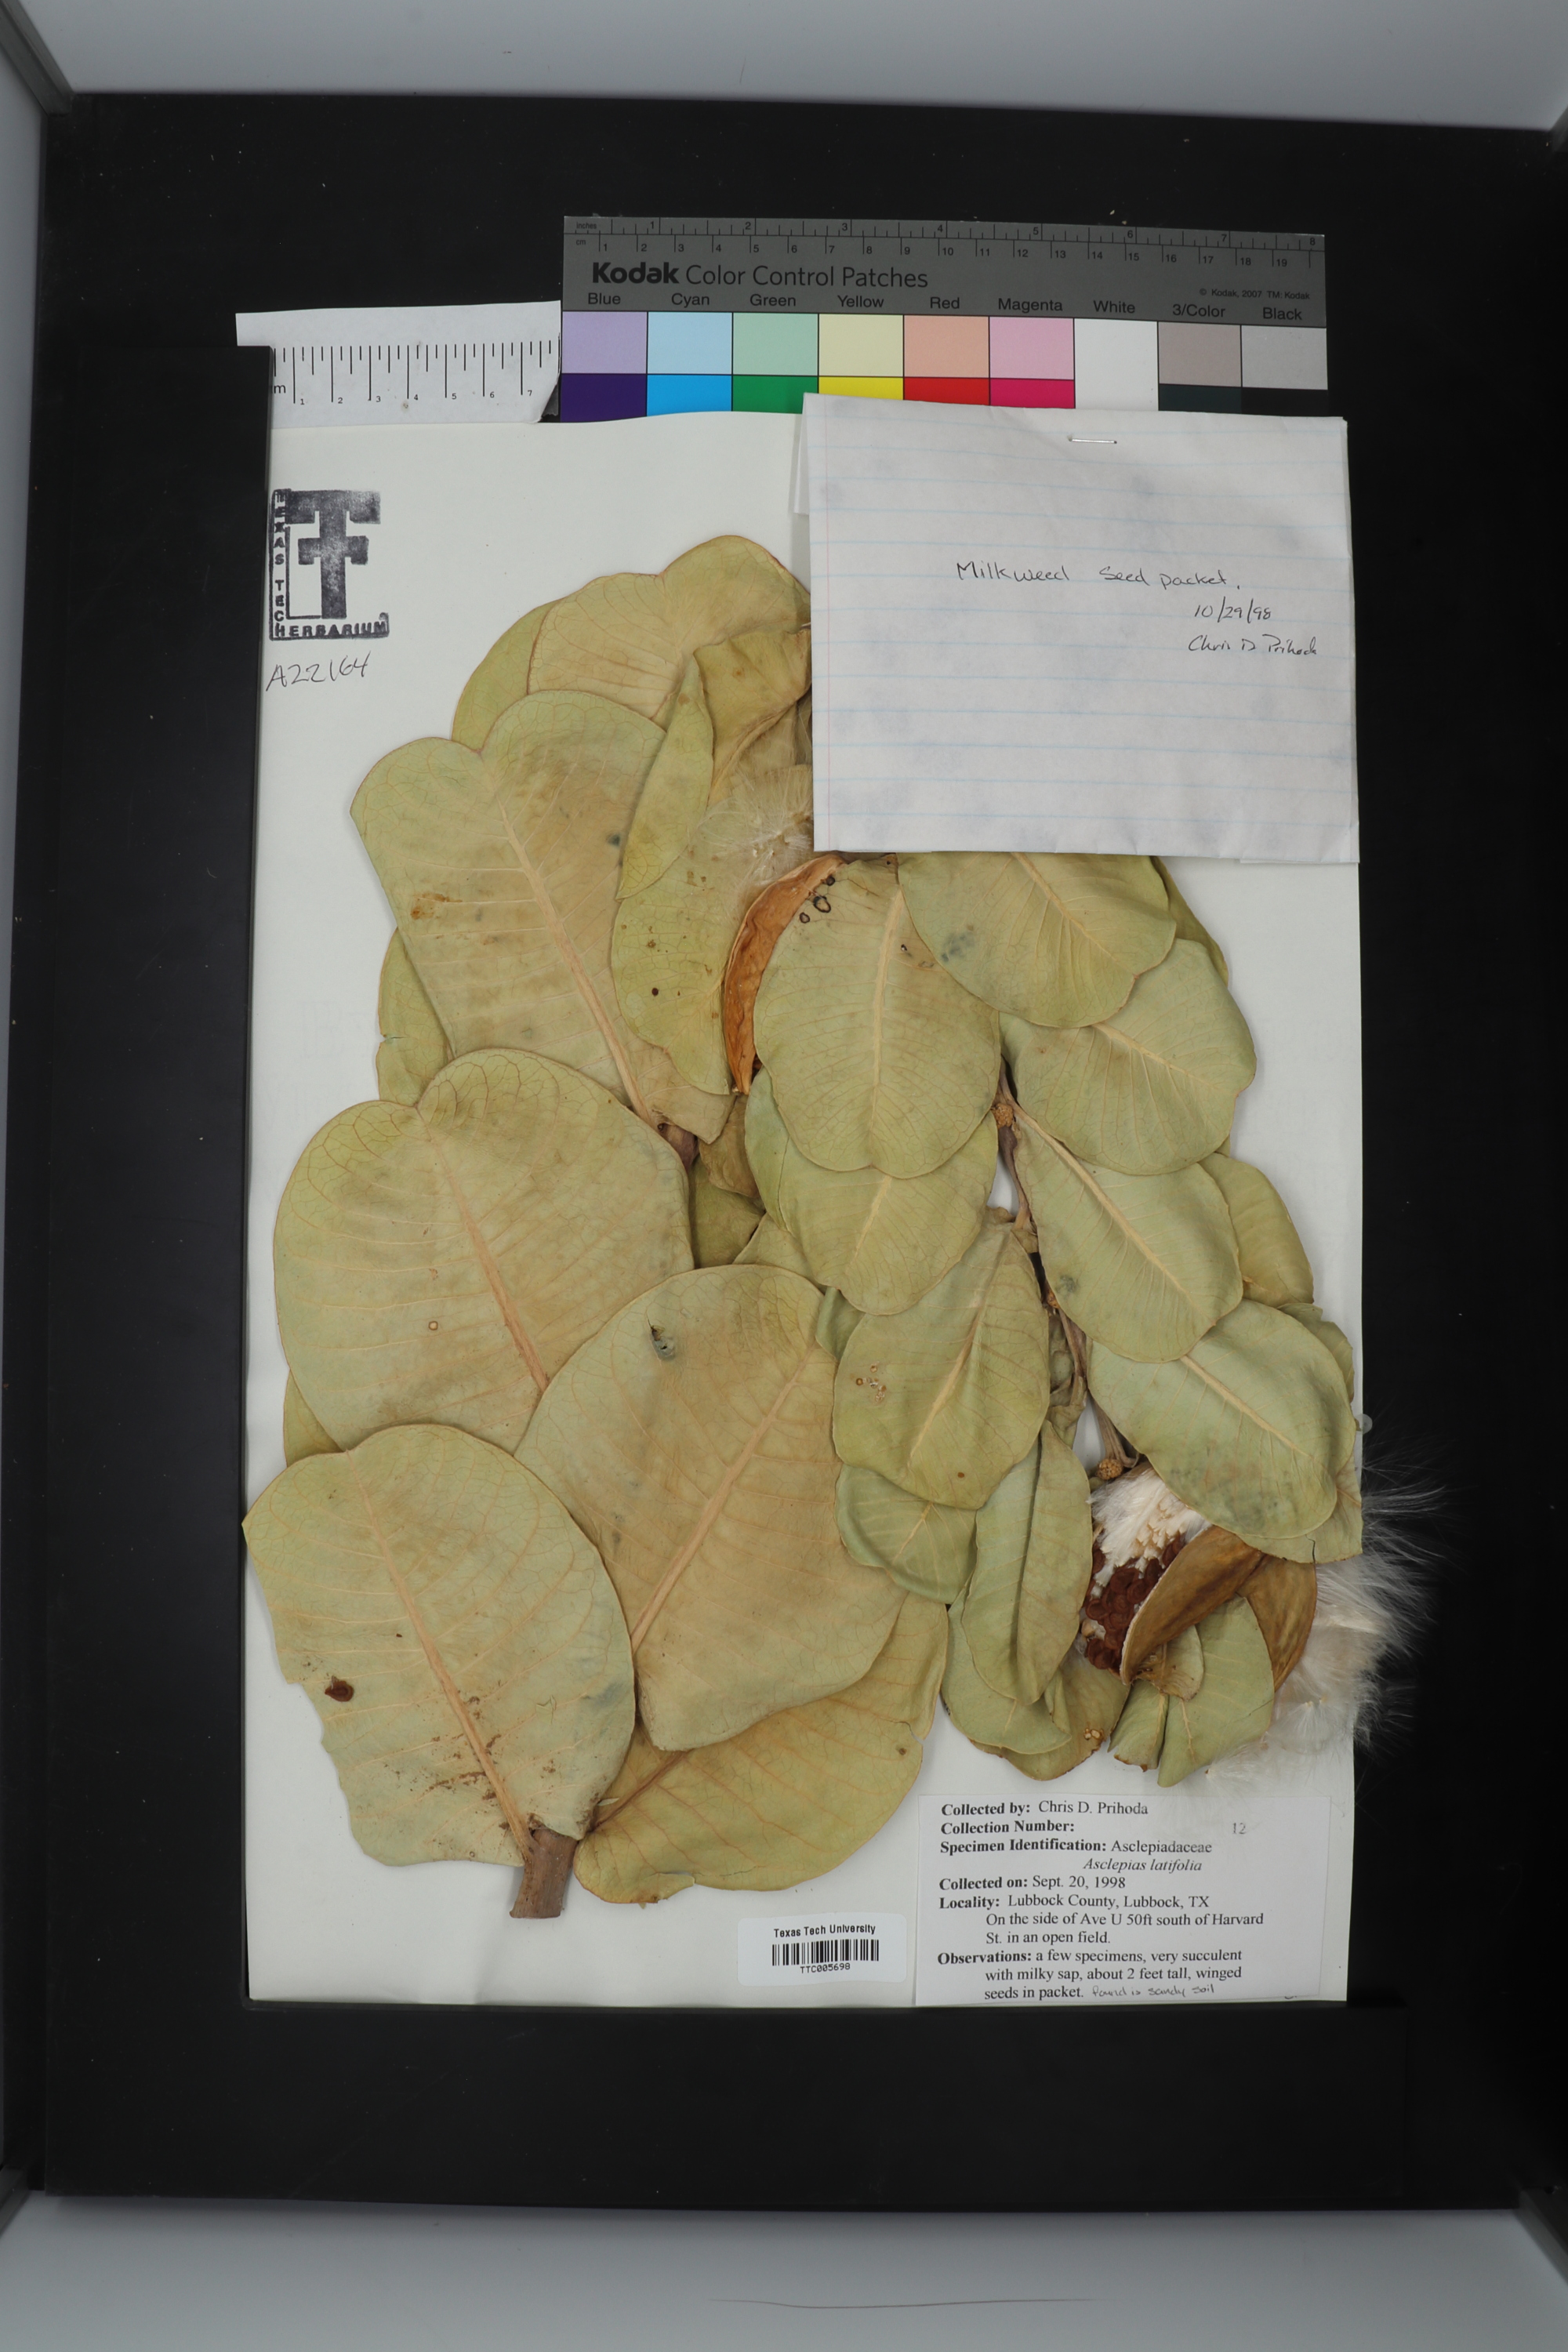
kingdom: Plantae
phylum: Tracheophyta
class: Magnoliopsida
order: Gentianales
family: Apocynaceae
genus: Asclepias
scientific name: Asclepias latifolia
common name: Broadleaf milkweed
